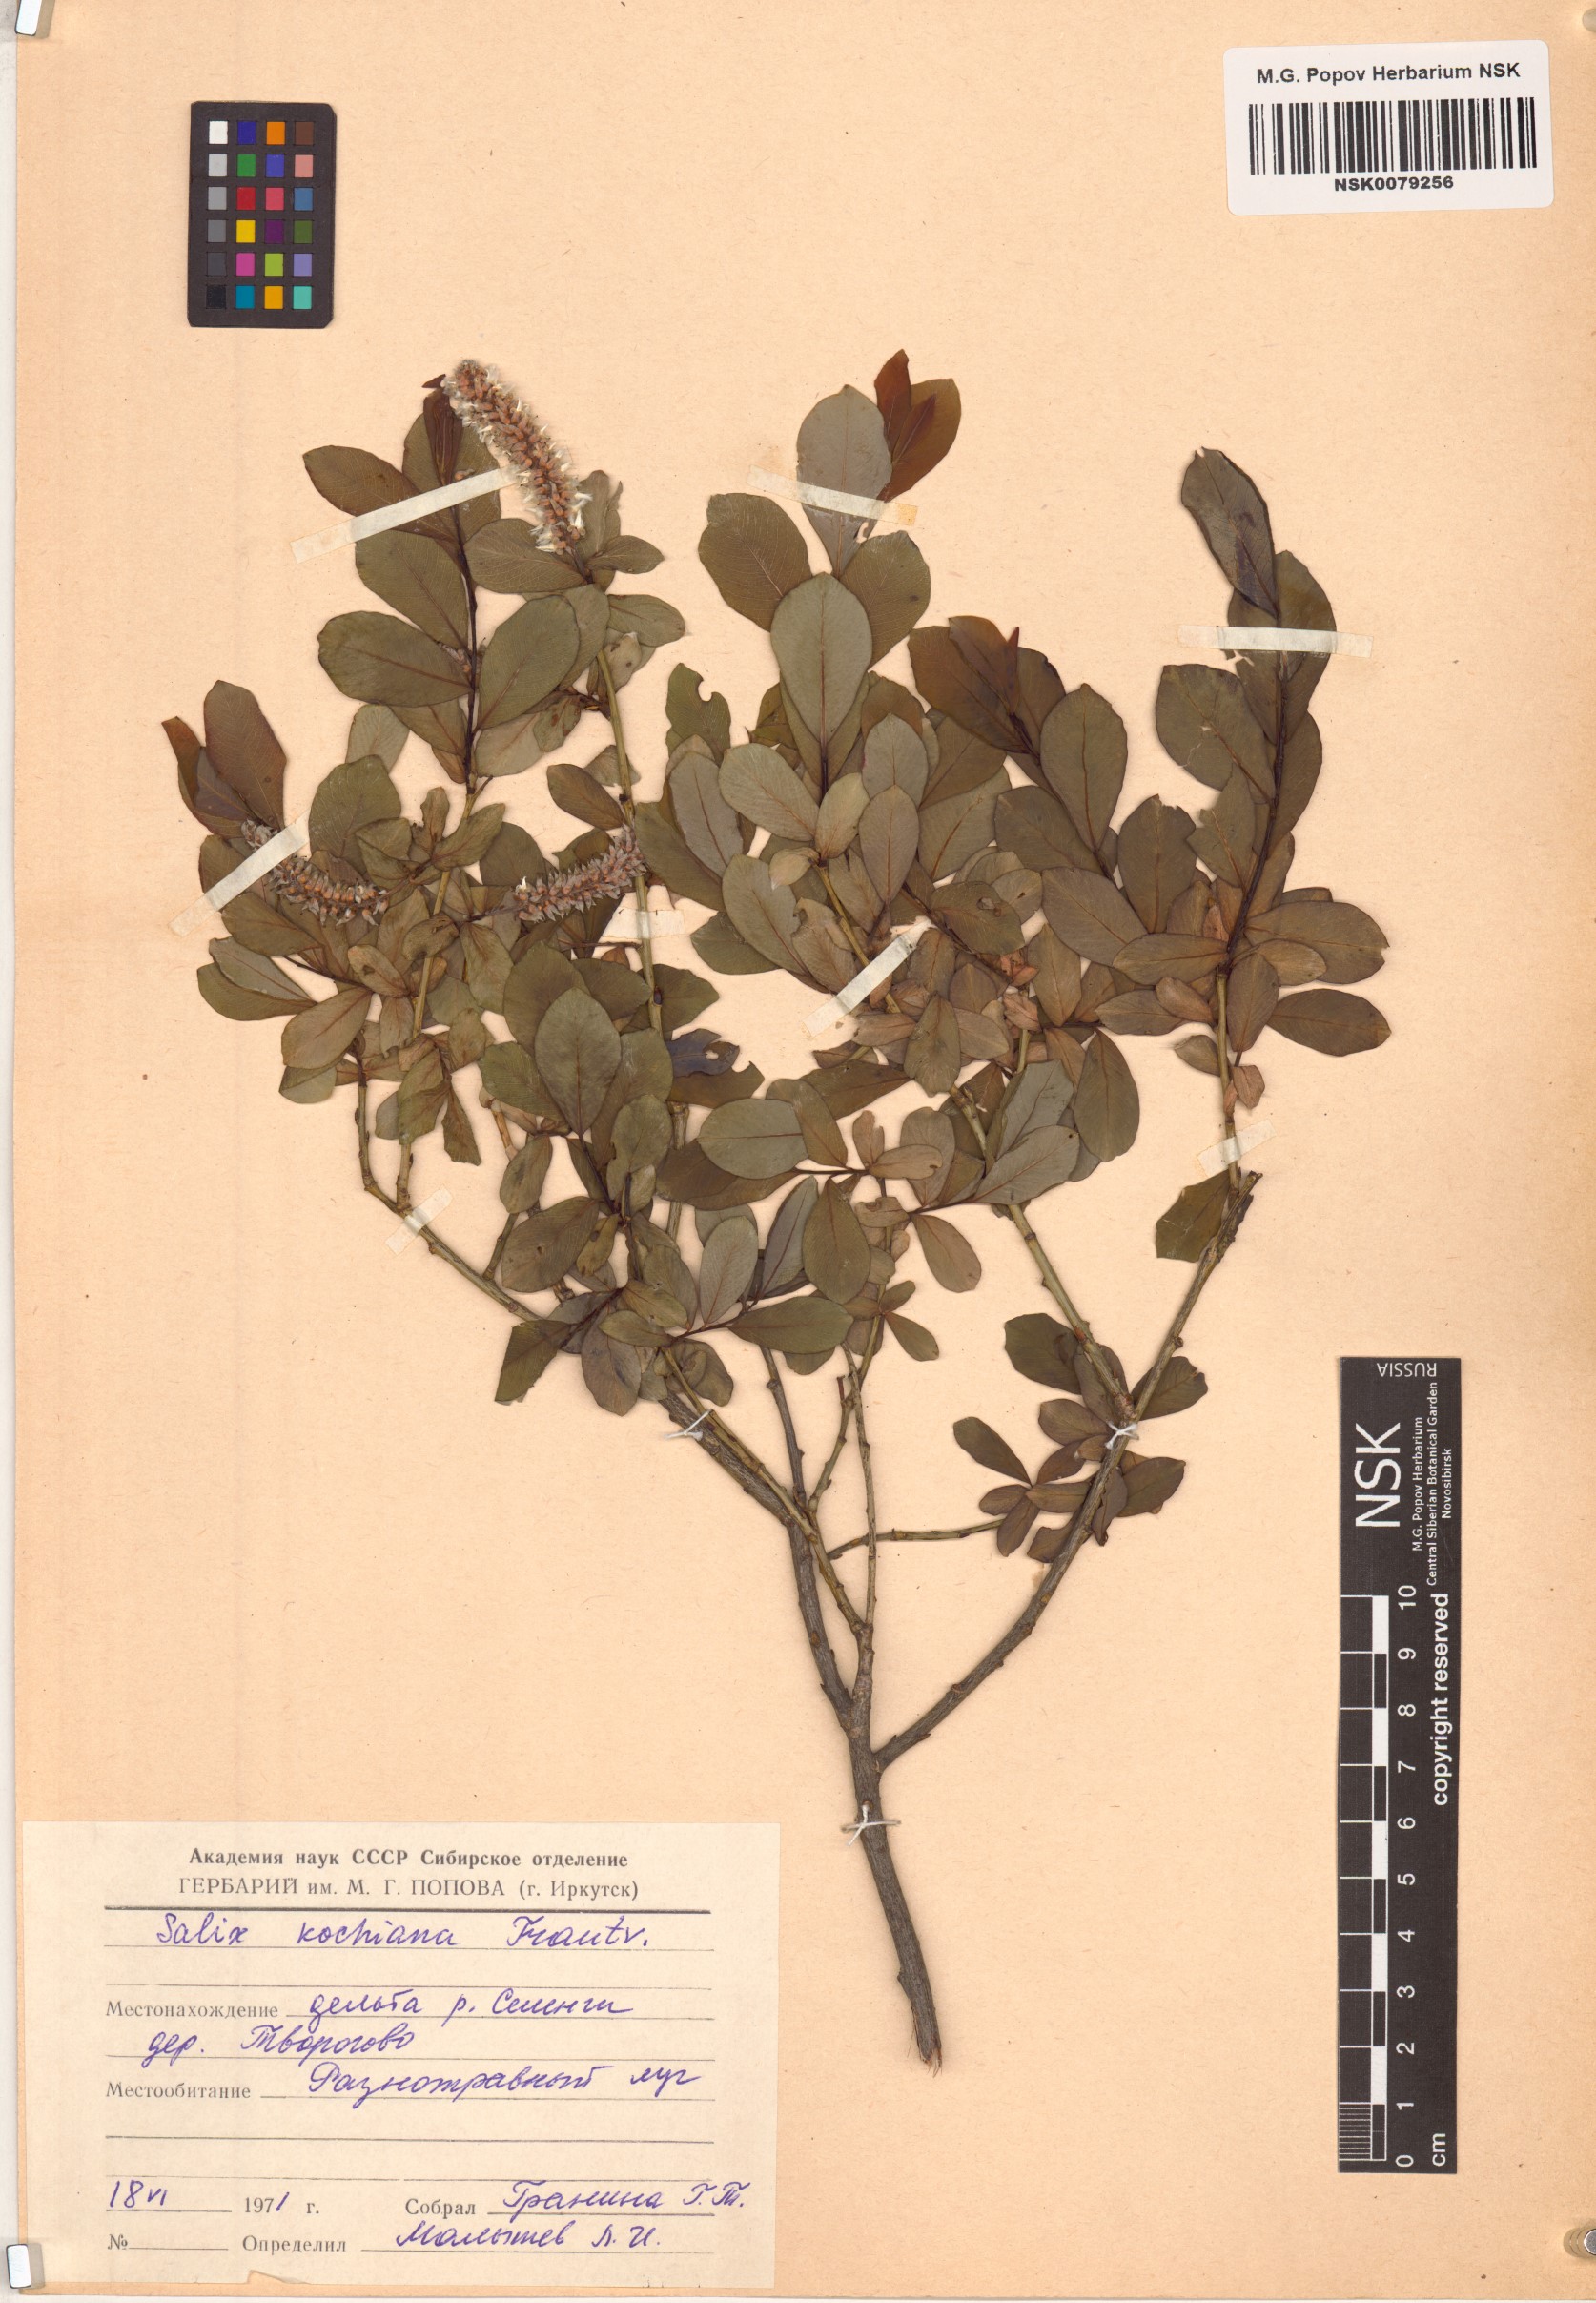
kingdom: Plantae
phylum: Tracheophyta
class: Magnoliopsida
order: Malpighiales
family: Salicaceae
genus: Salix
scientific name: Salix kochiana
